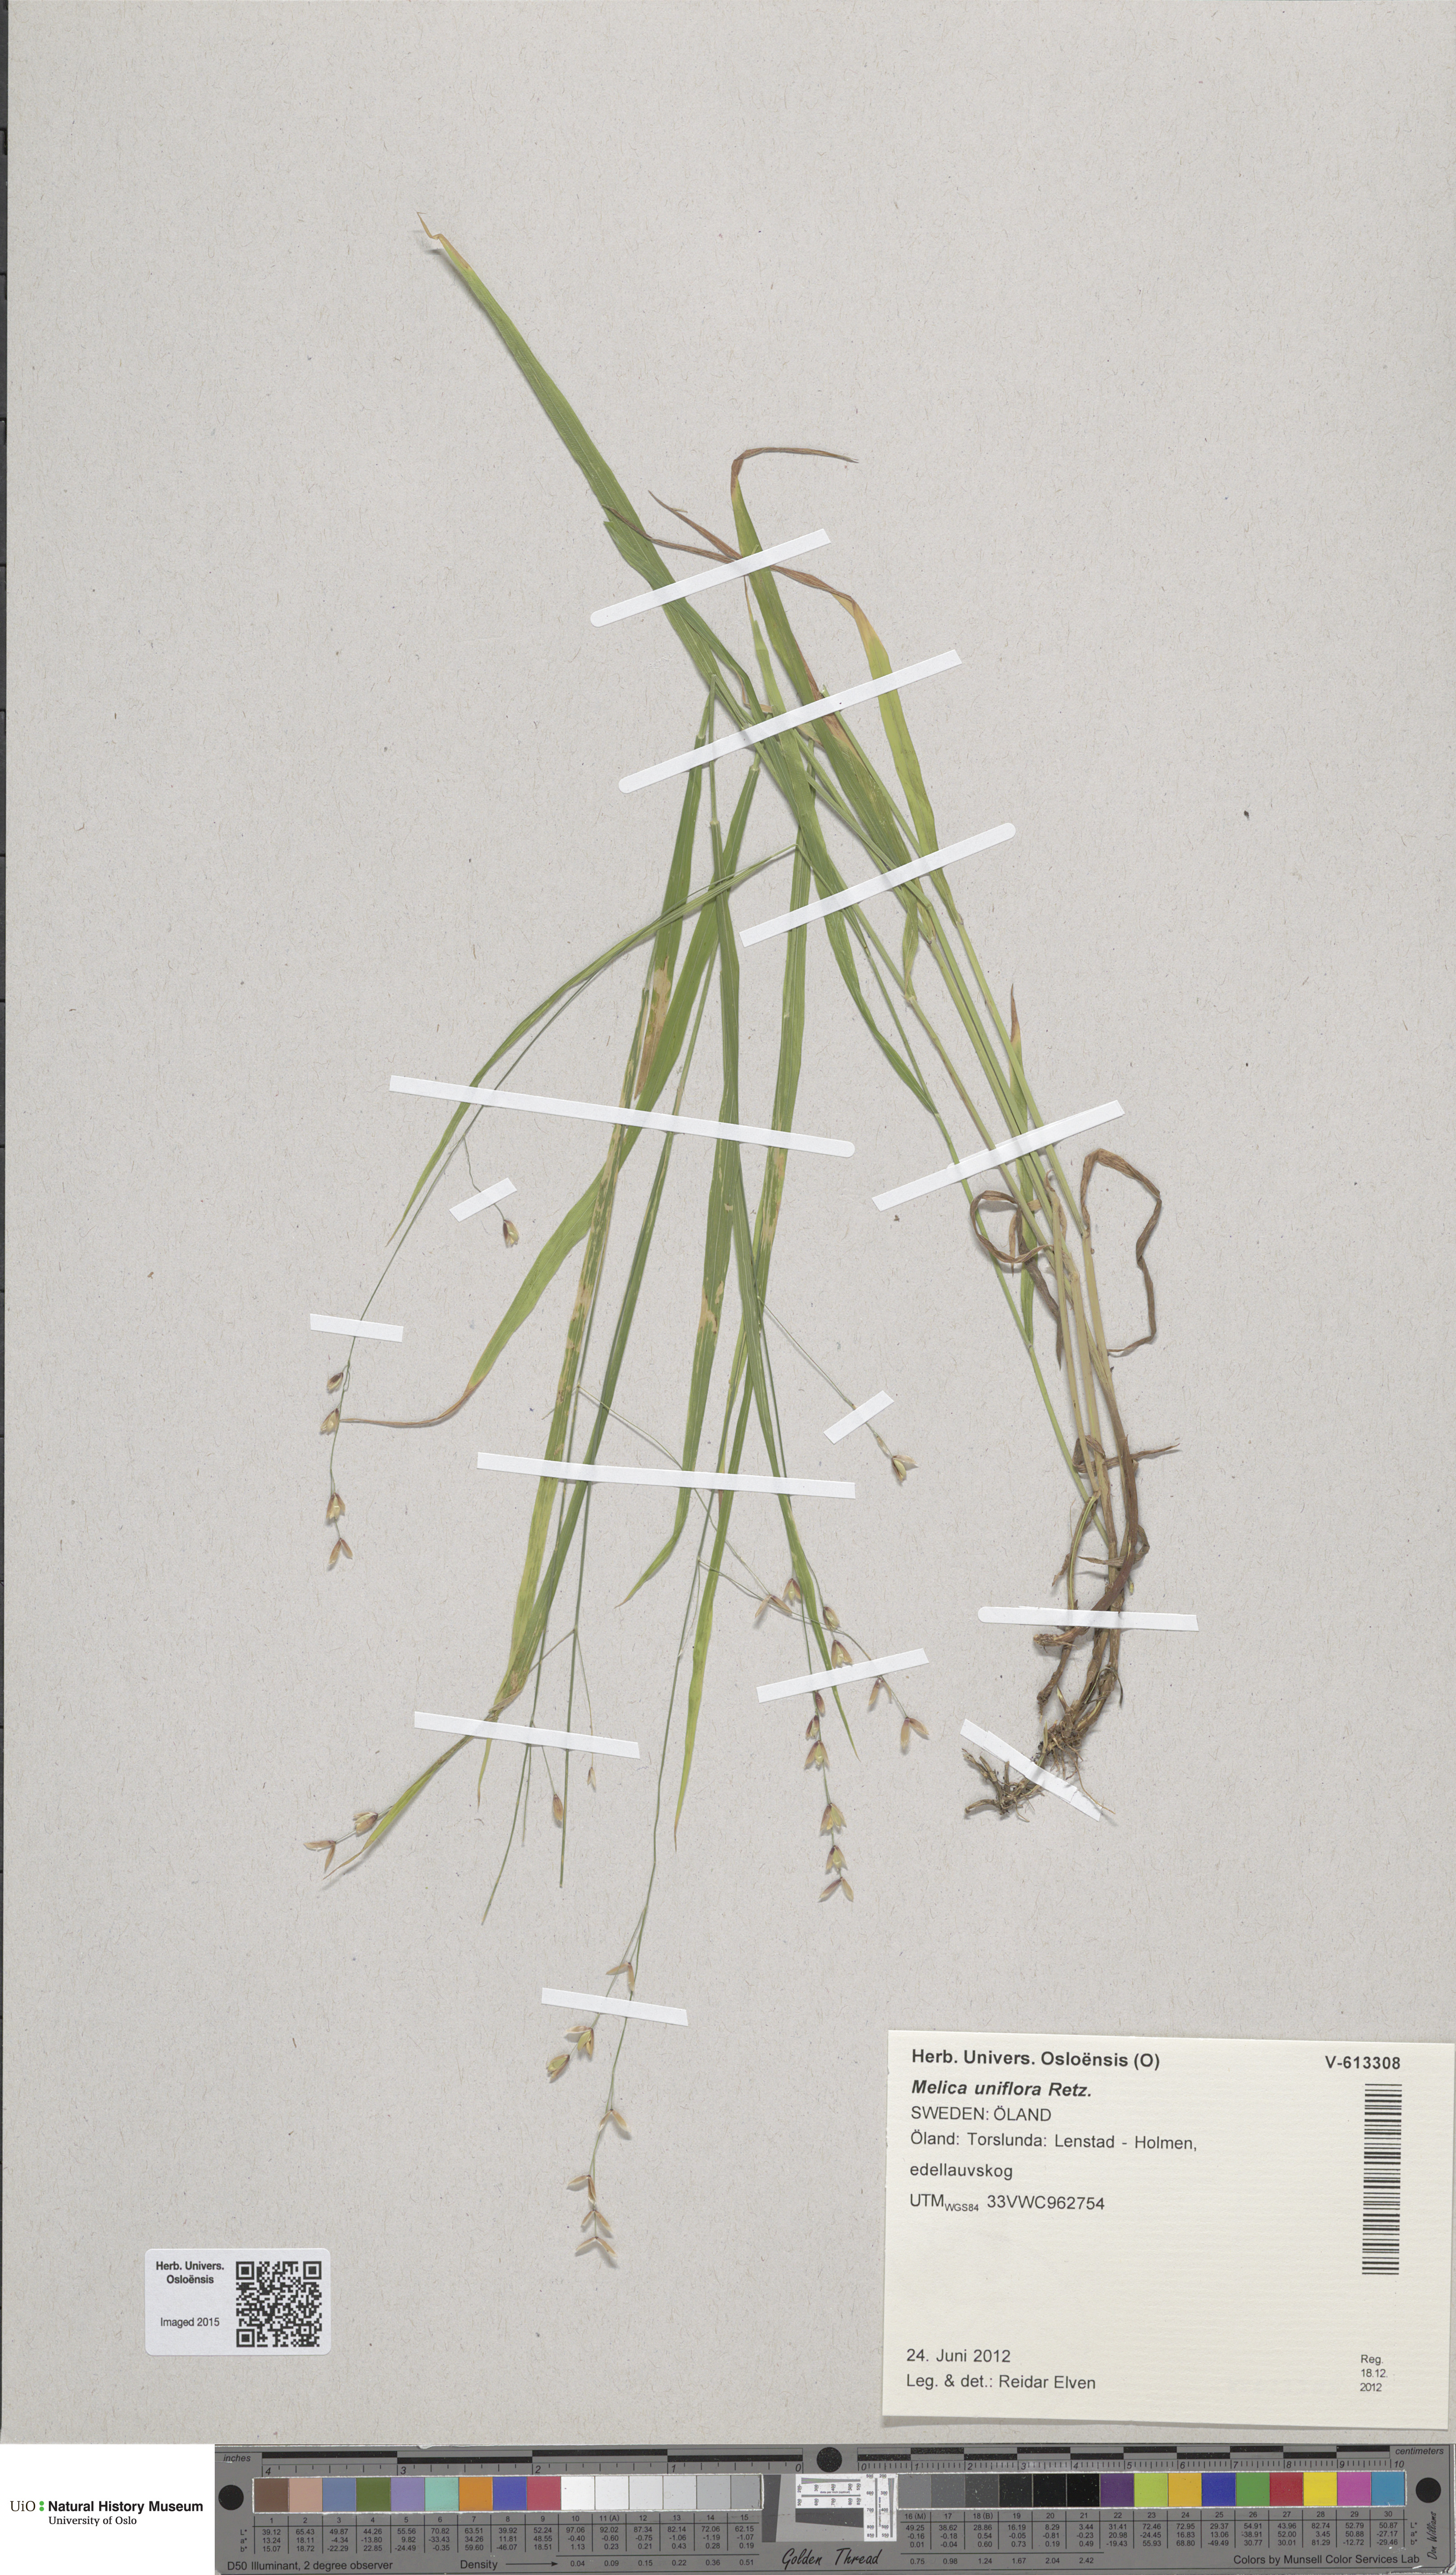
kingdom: Plantae
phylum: Tracheophyta
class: Liliopsida
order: Poales
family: Poaceae
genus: Melica
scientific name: Melica uniflora
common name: Wood melick
